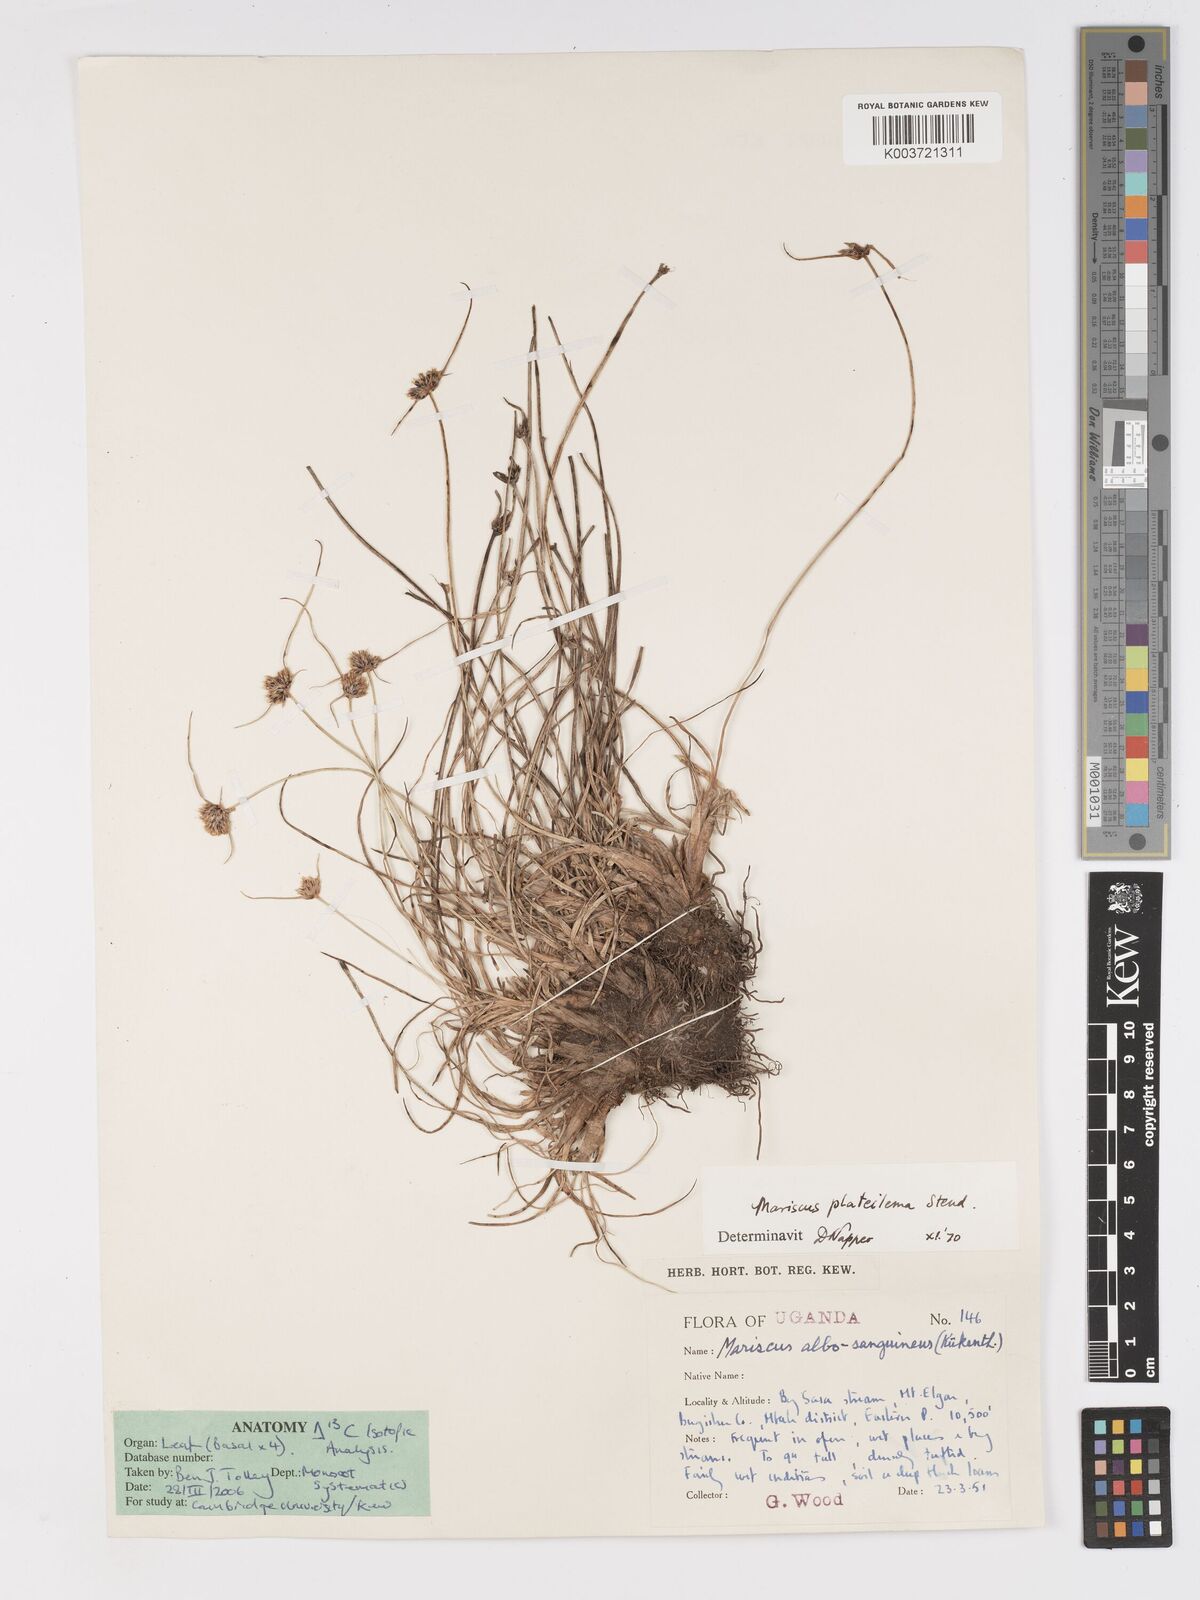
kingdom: Plantae
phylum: Tracheophyta
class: Liliopsida
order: Poales
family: Cyperaceae
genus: Cyperus
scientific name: Cyperus albosanguineus
